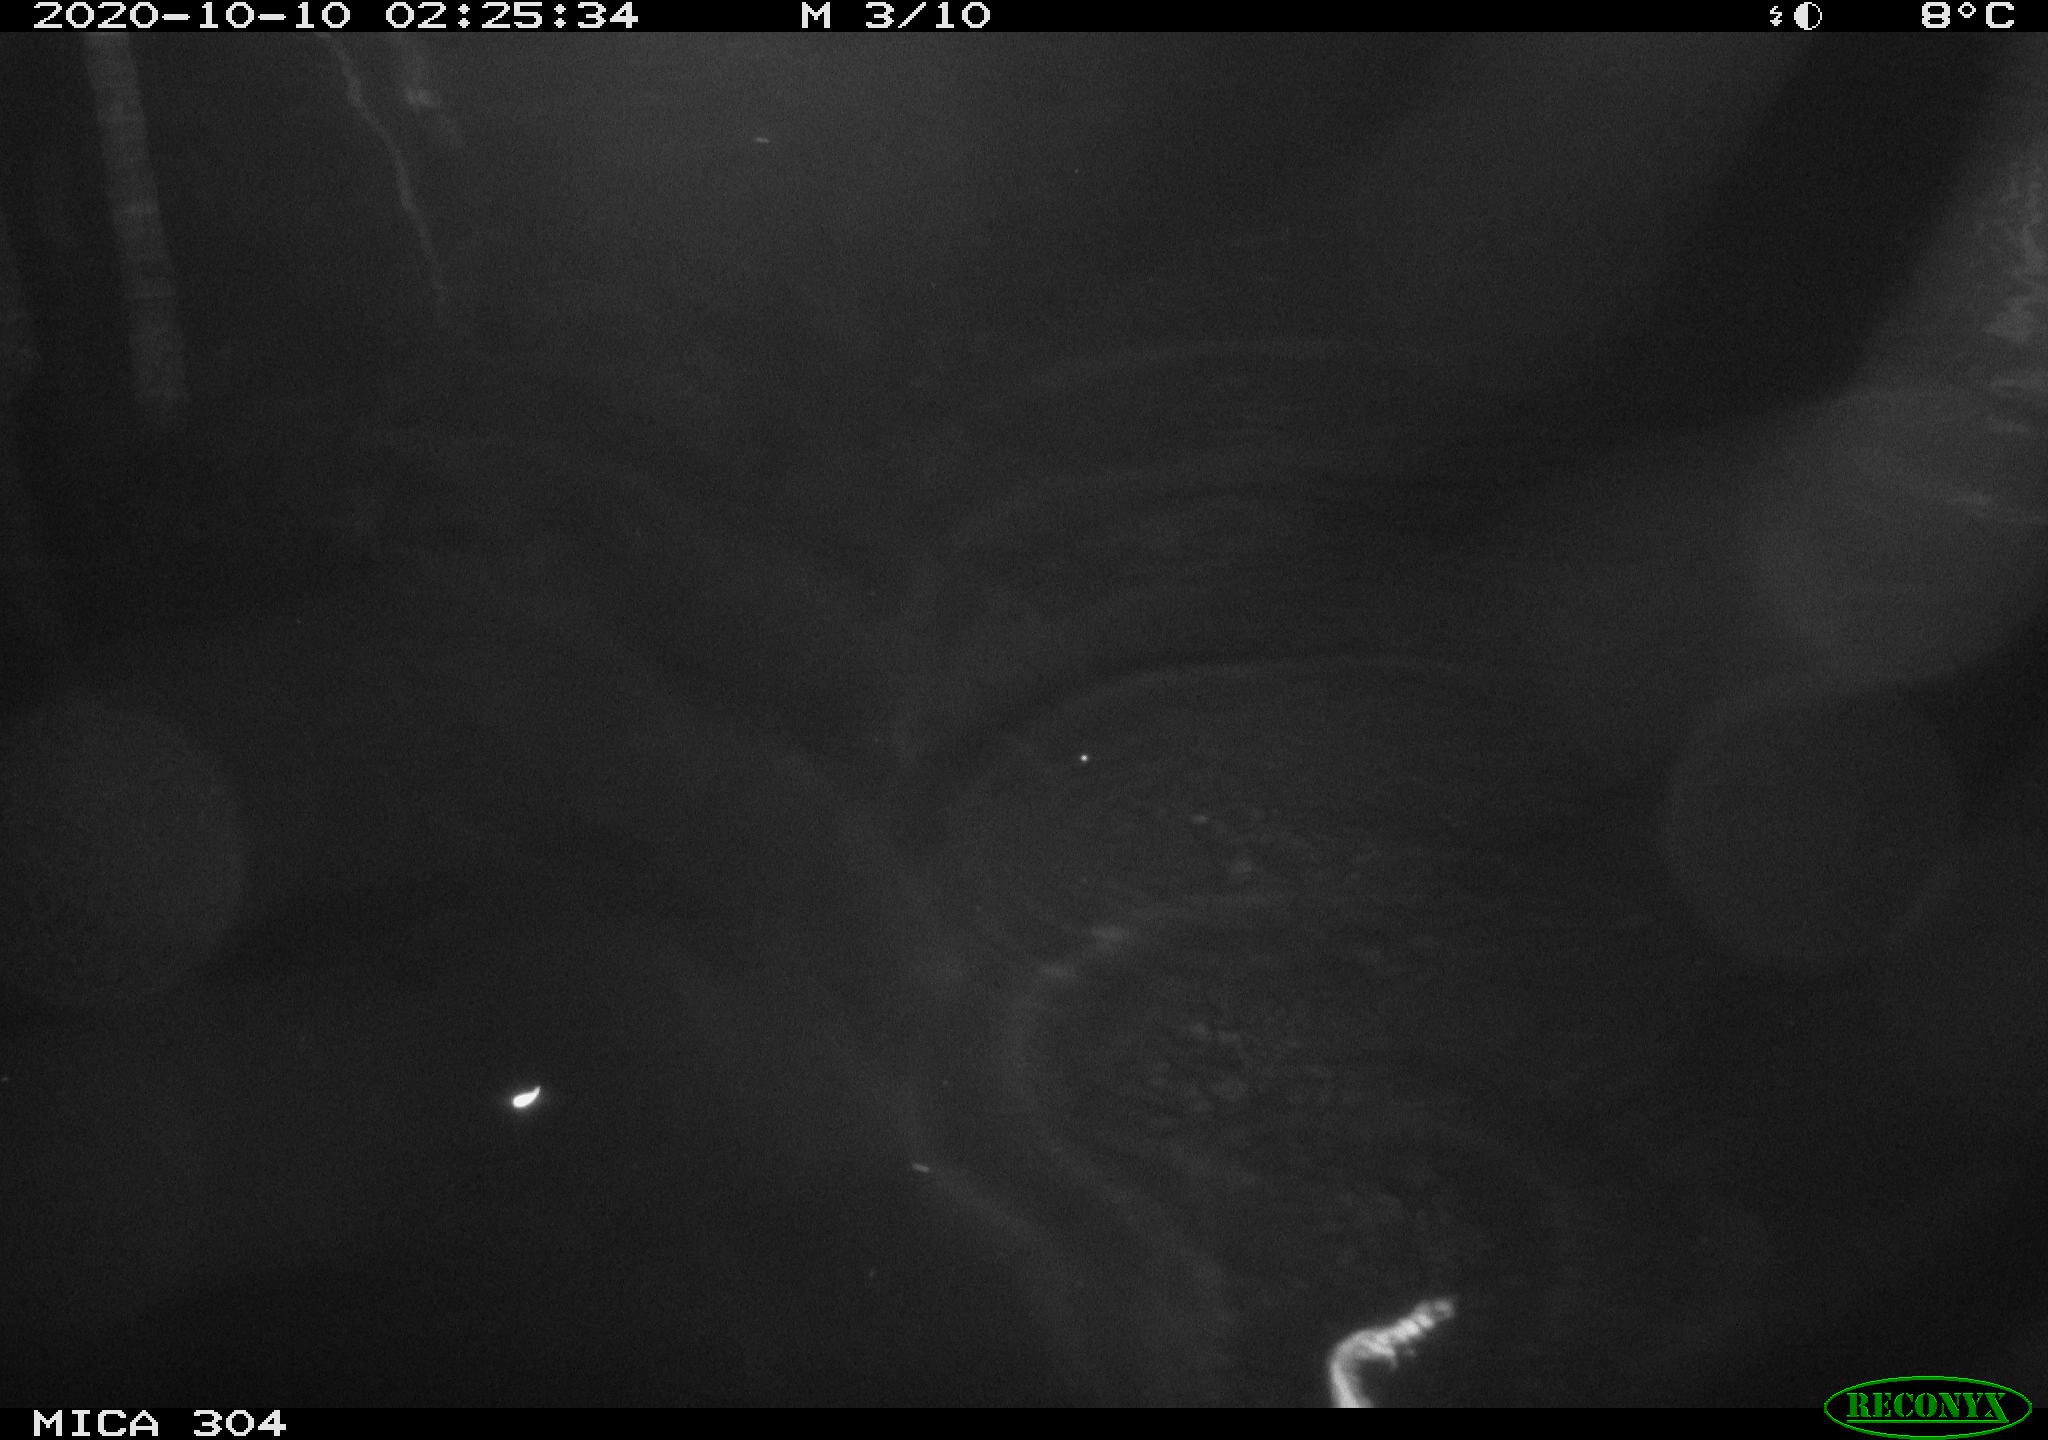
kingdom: Animalia
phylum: Chordata
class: Mammalia
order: Rodentia
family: Cricetidae
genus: Ondatra
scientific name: Ondatra zibethicus
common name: Muskrat
